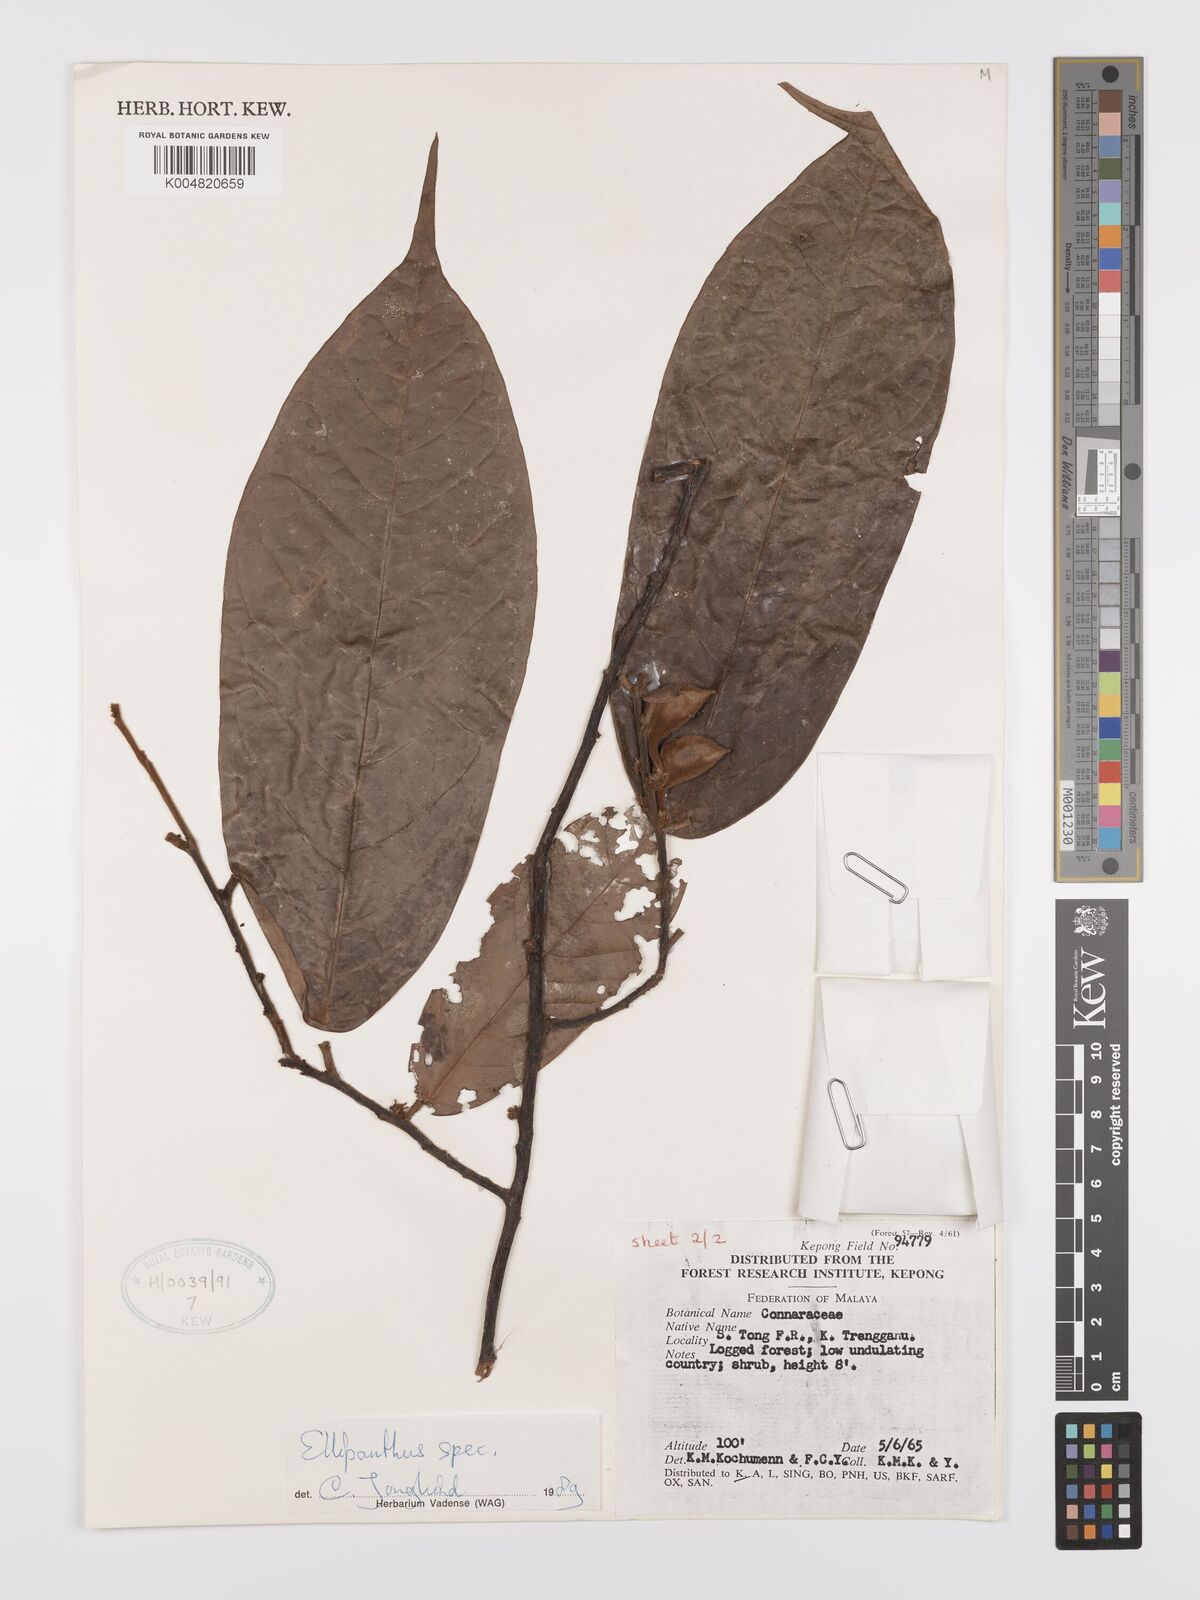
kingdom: Plantae
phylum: Tracheophyta
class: Magnoliopsida
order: Oxalidales
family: Connaraceae
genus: Ellipanthus
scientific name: Ellipanthus
